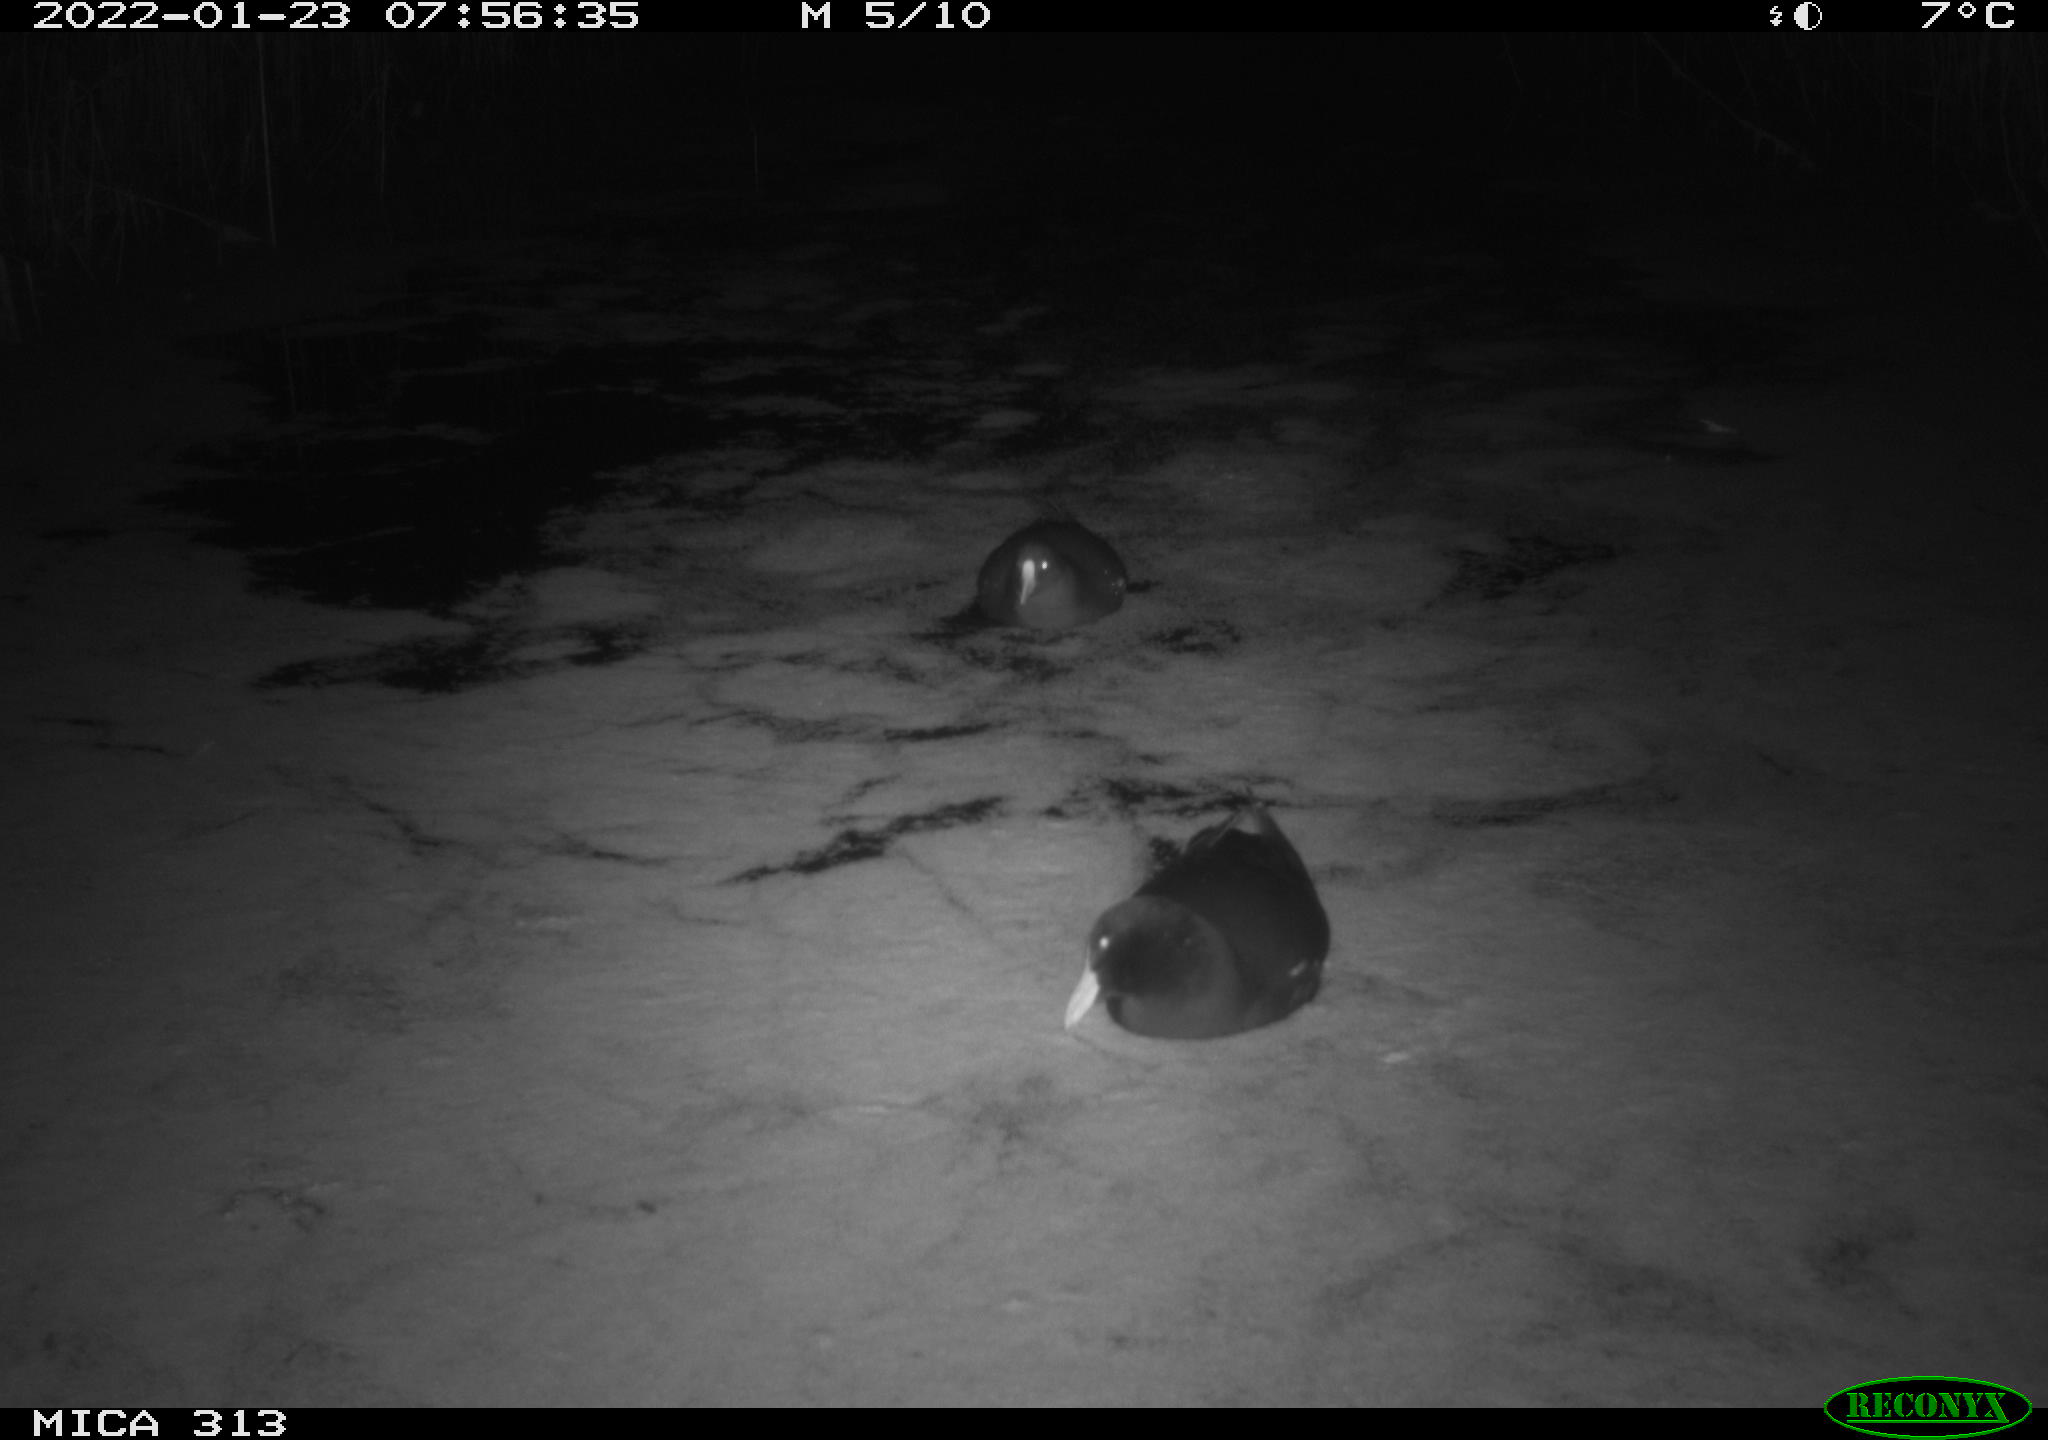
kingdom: Animalia
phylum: Chordata
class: Aves
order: Gruiformes
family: Rallidae
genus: Gallinula
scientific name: Gallinula chloropus
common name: Common moorhen
